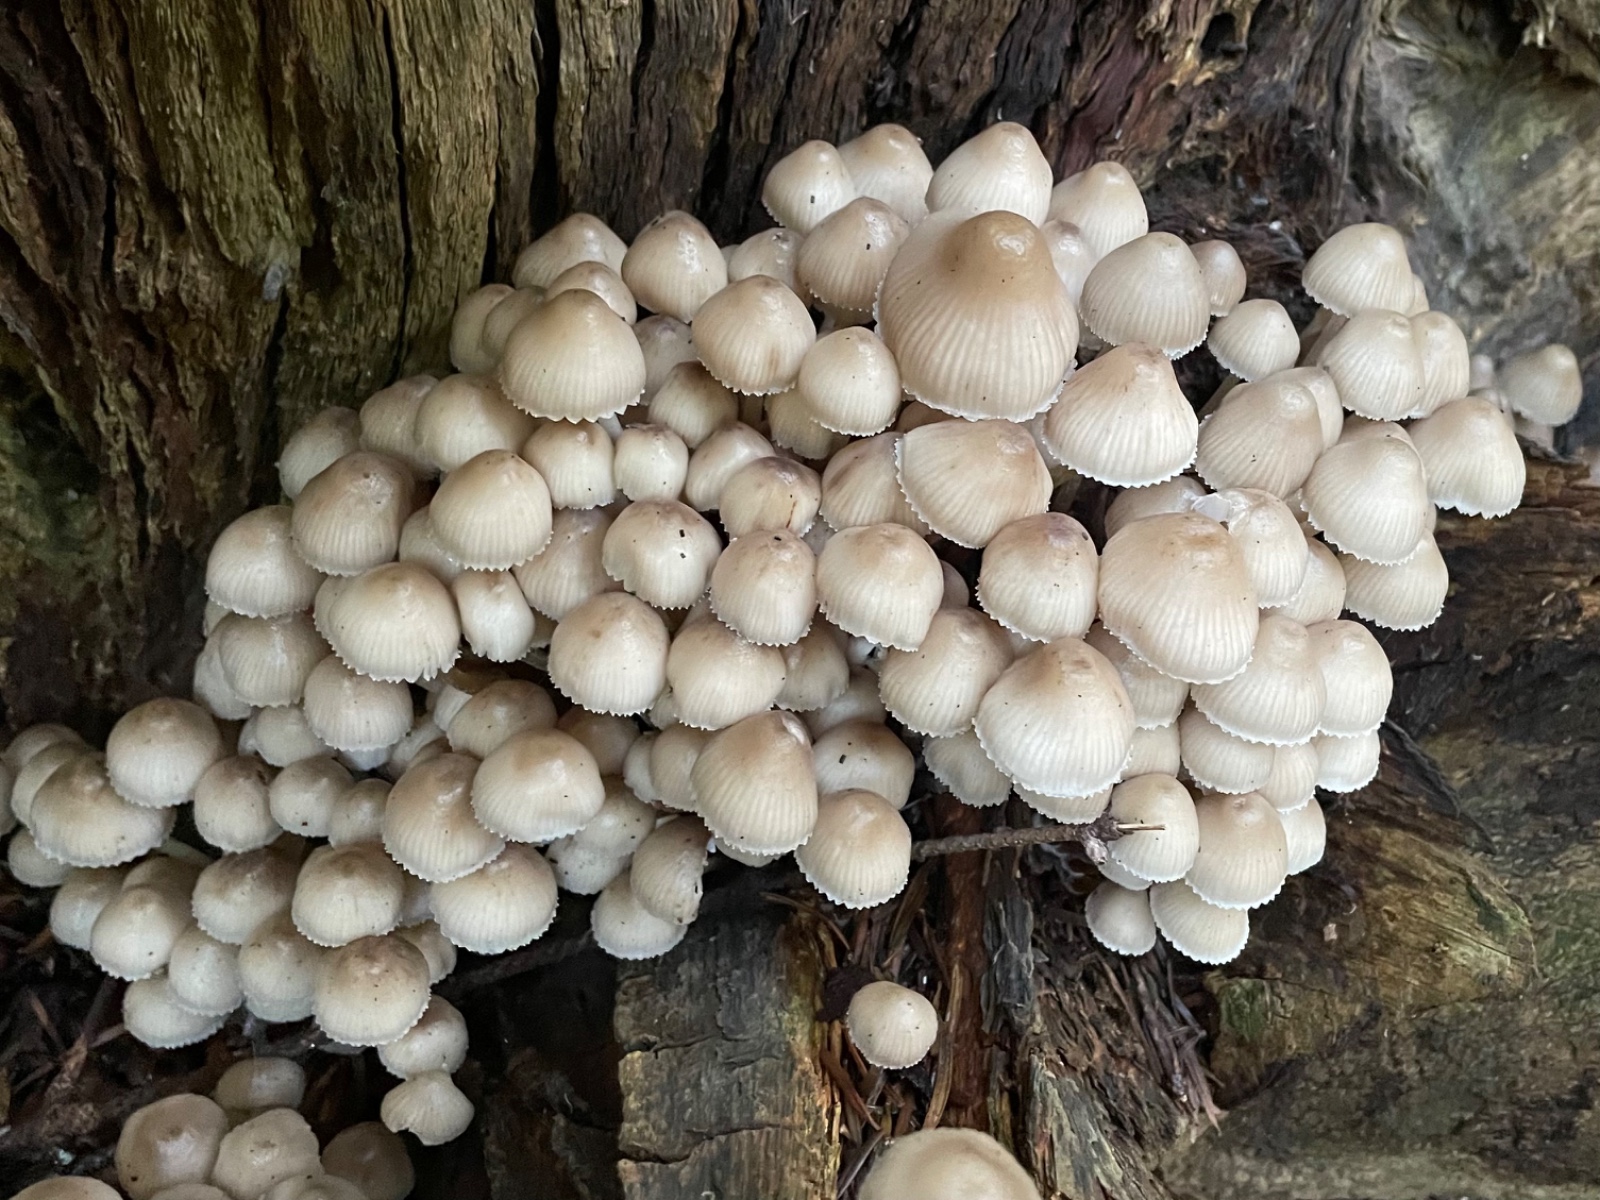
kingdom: Fungi
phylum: Basidiomycota
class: Agaricomycetes
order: Agaricales
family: Mycenaceae
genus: Mycena
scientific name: Mycena inclinata
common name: nikkende huesvamp
